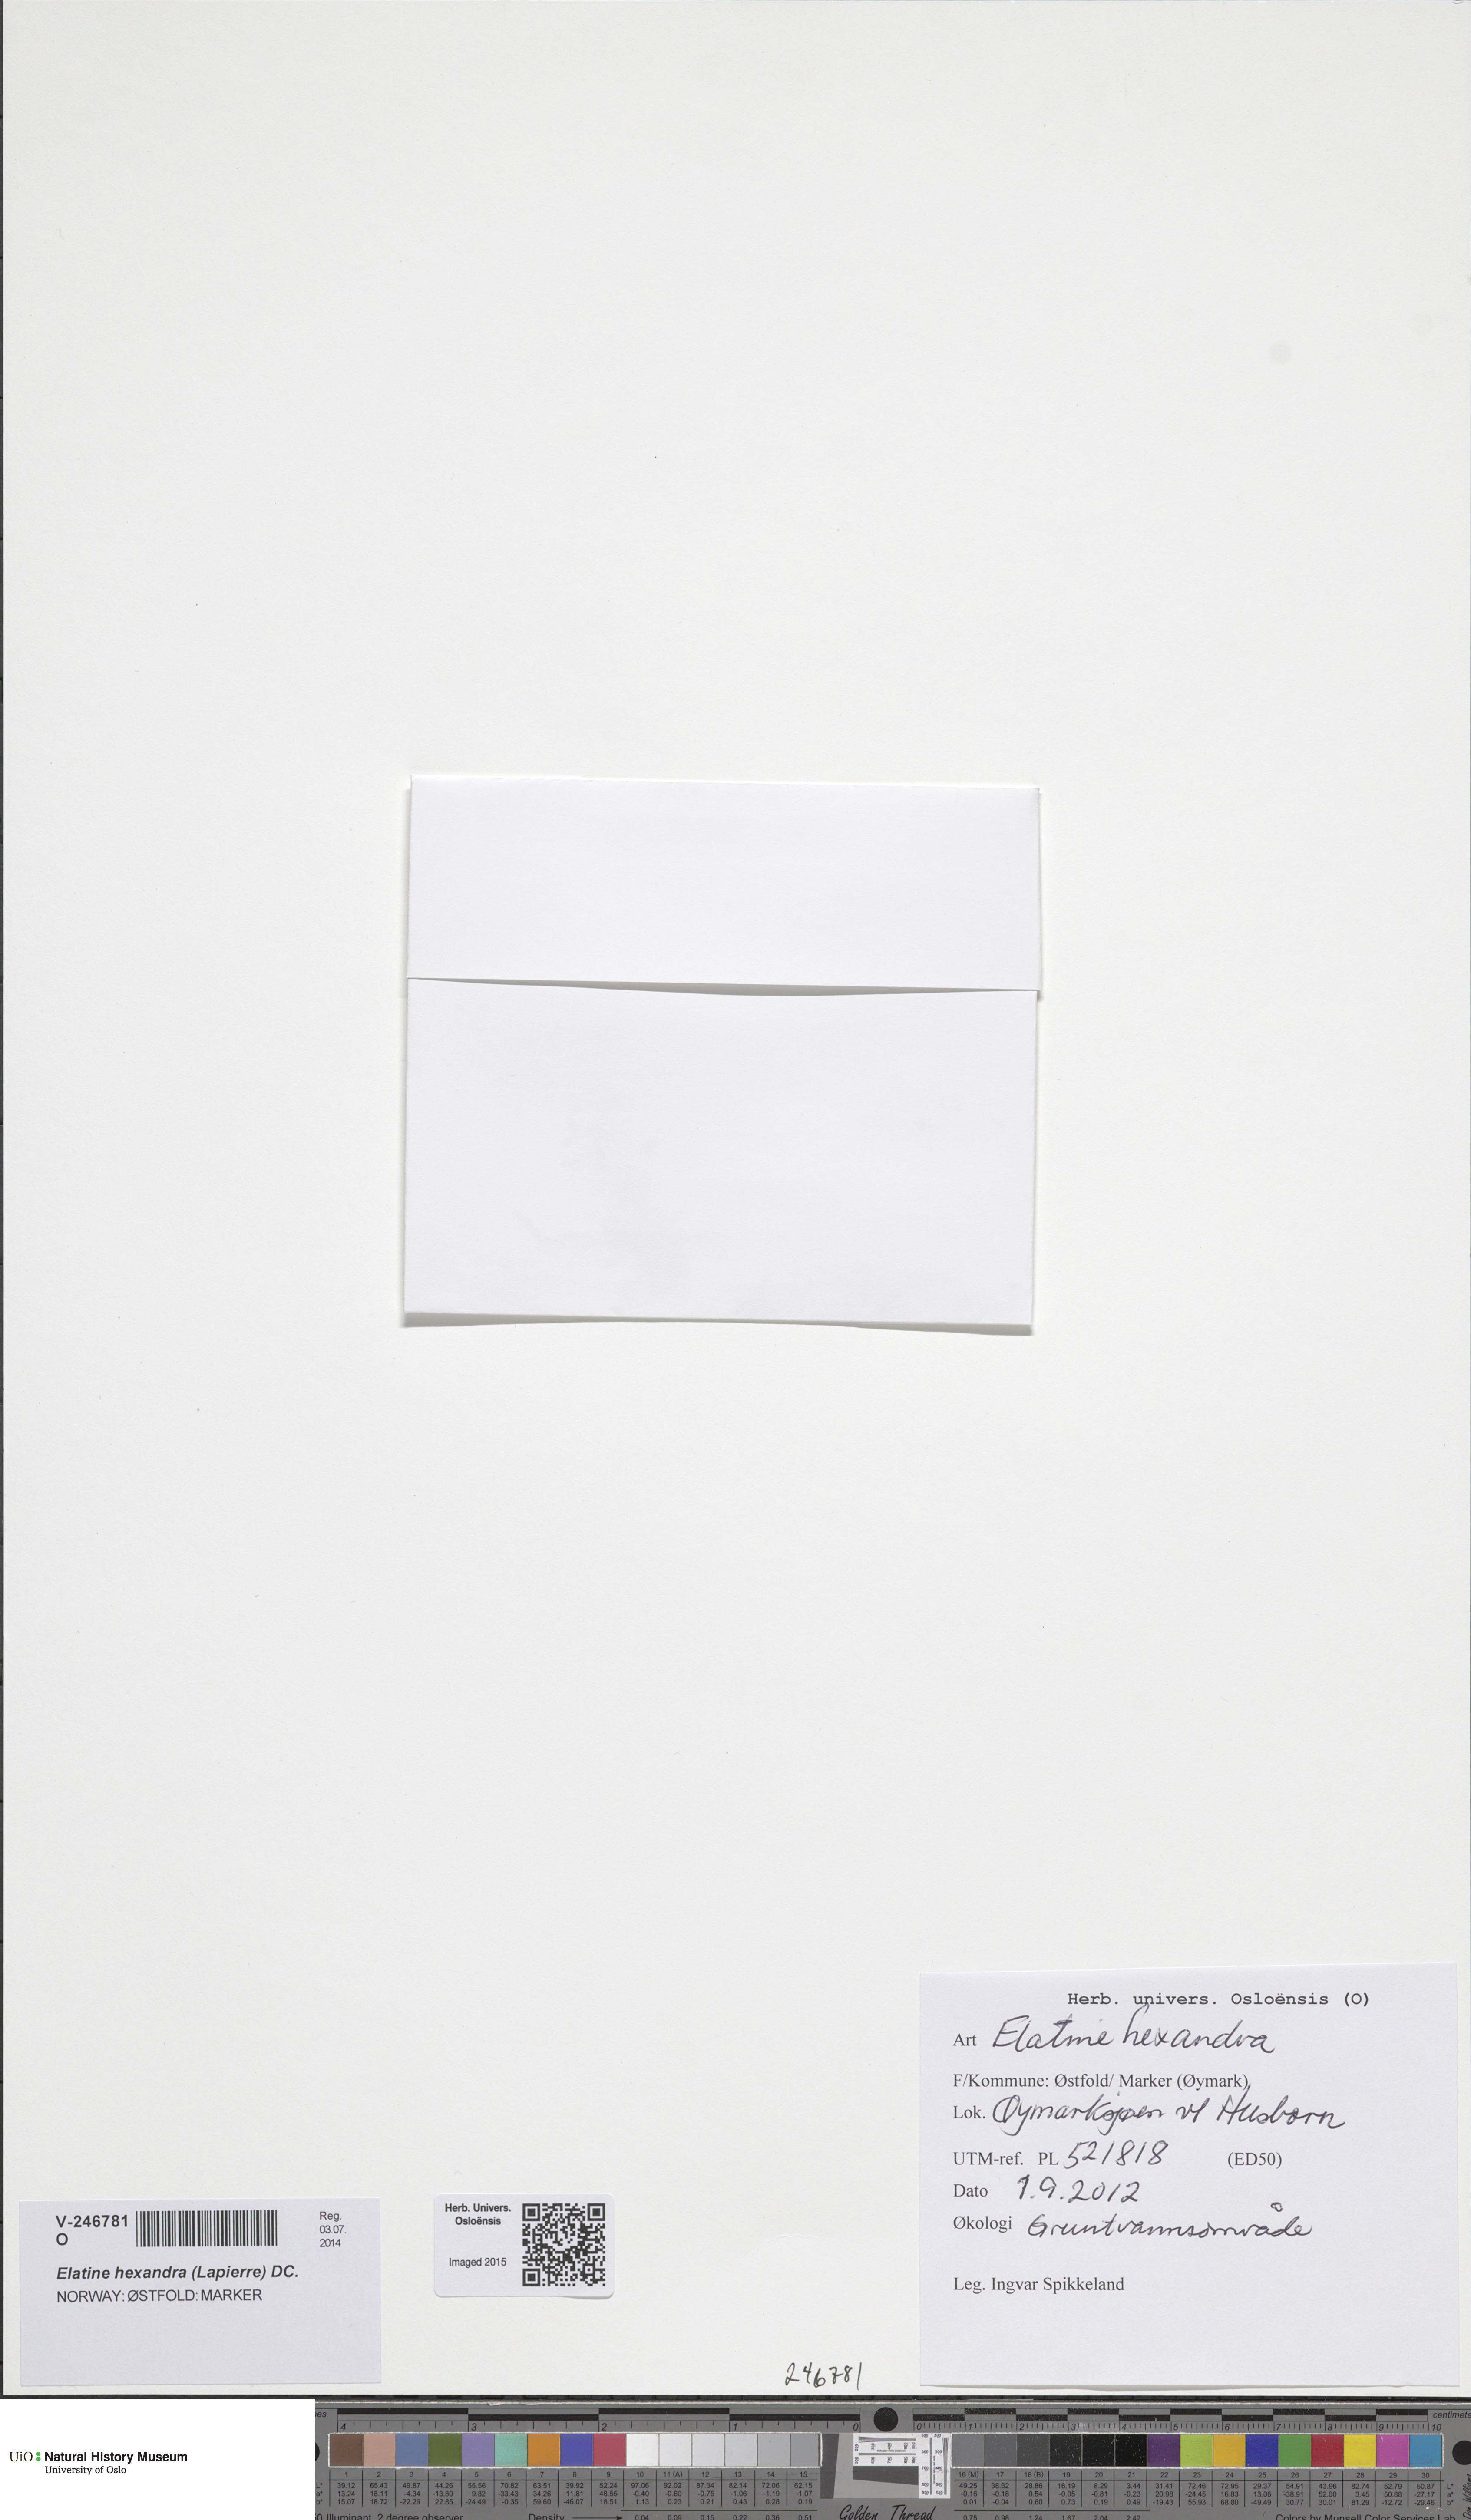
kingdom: Plantae
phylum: Tracheophyta
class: Magnoliopsida
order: Malpighiales
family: Elatinaceae
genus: Elatine
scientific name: Elatine hexandra
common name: Six-stamened waterwort
